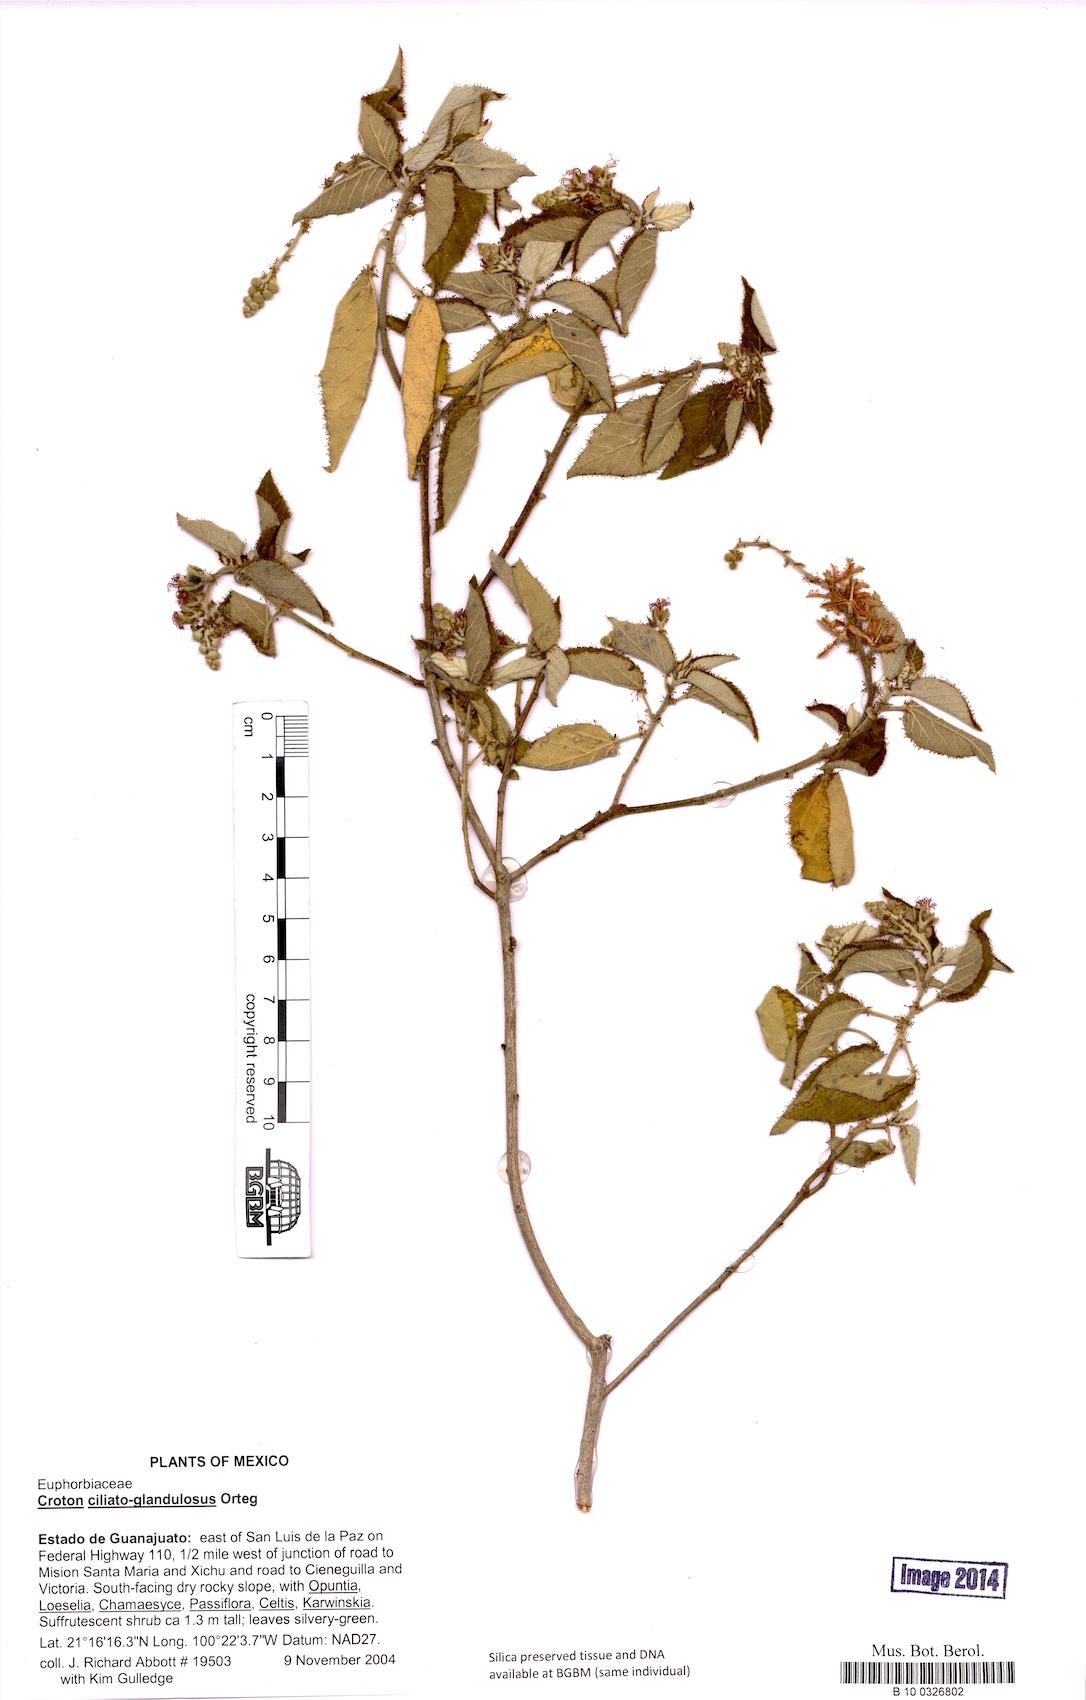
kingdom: Plantae
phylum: Tracheophyta
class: Magnoliopsida
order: Malpighiales
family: Euphorbiaceae
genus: Croton
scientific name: Croton ciliatoglandulifer
